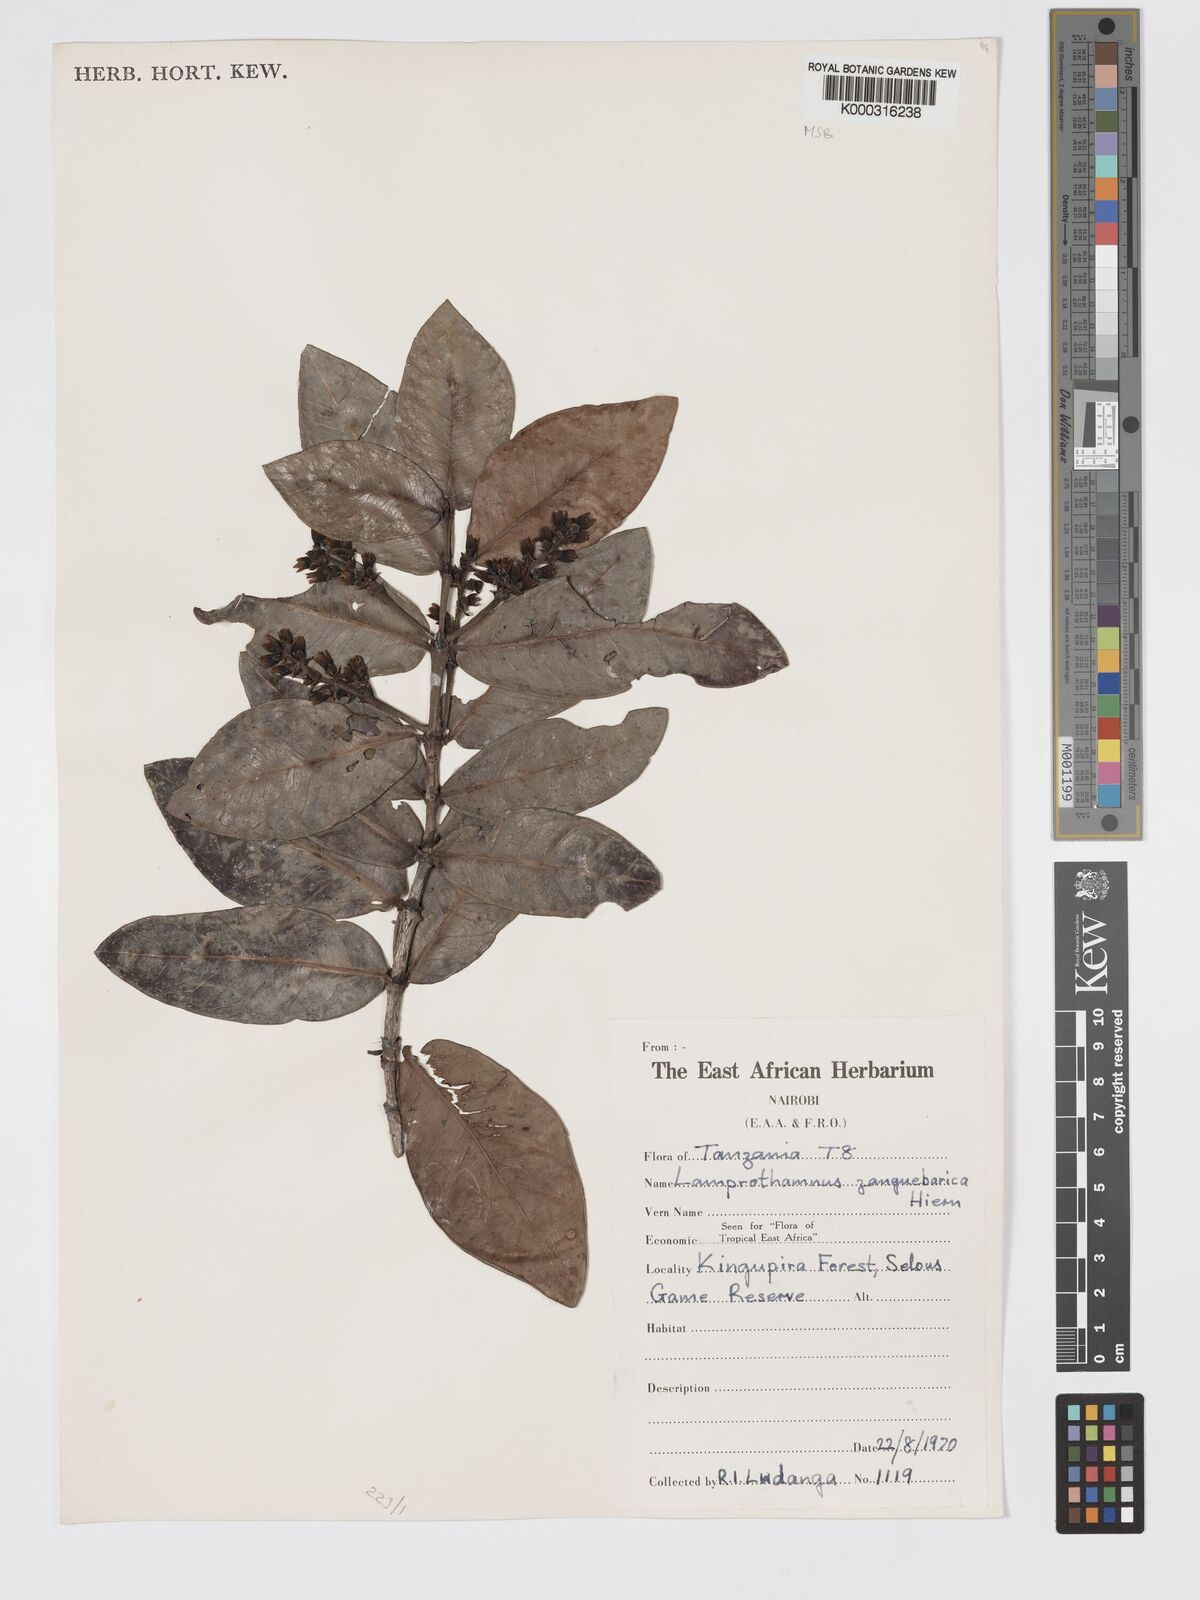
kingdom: Plantae
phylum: Tracheophyta
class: Magnoliopsida
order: Gentianales
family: Rubiaceae
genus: Lamprothamnus
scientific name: Lamprothamnus zanguebaricus
